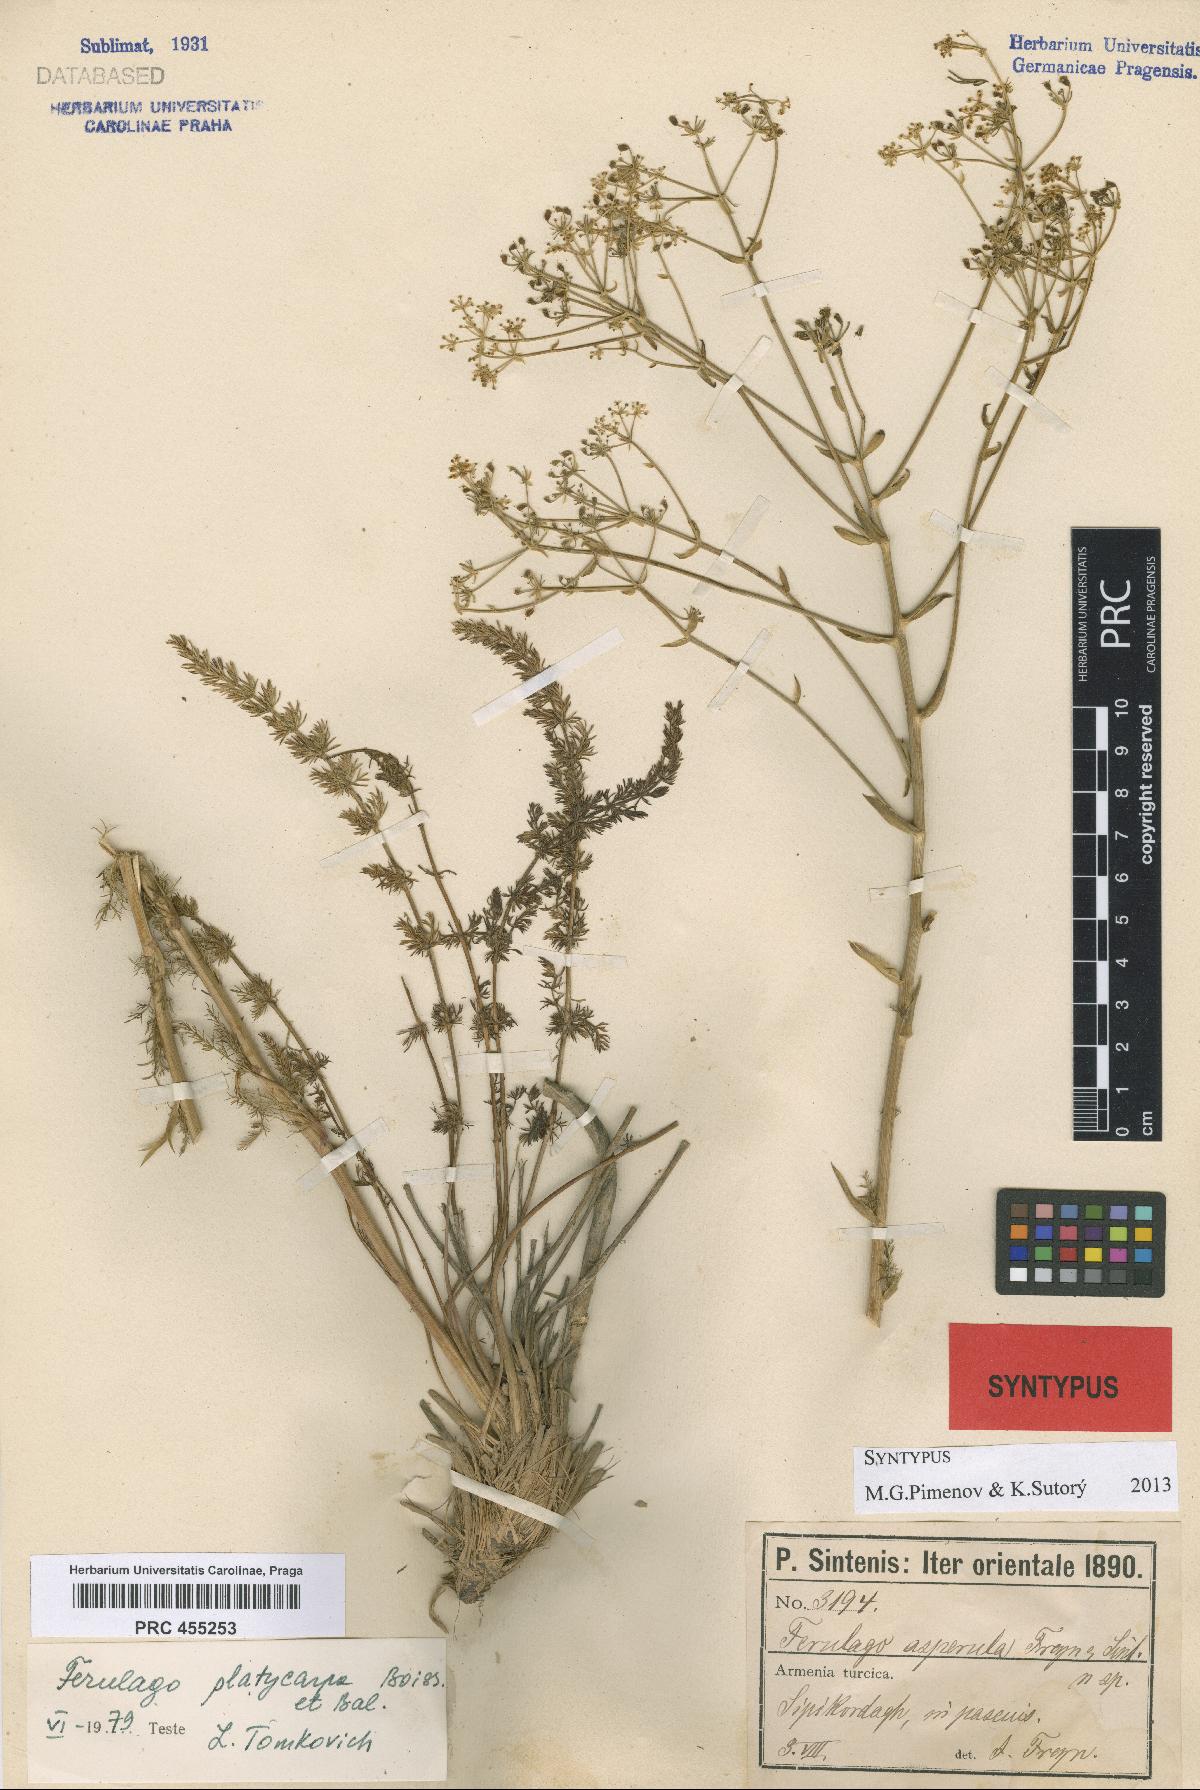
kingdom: Plantae
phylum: Tracheophyta
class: Magnoliopsida
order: Apiales
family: Apiaceae
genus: Ferulago
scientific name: Ferulago platycarpa
